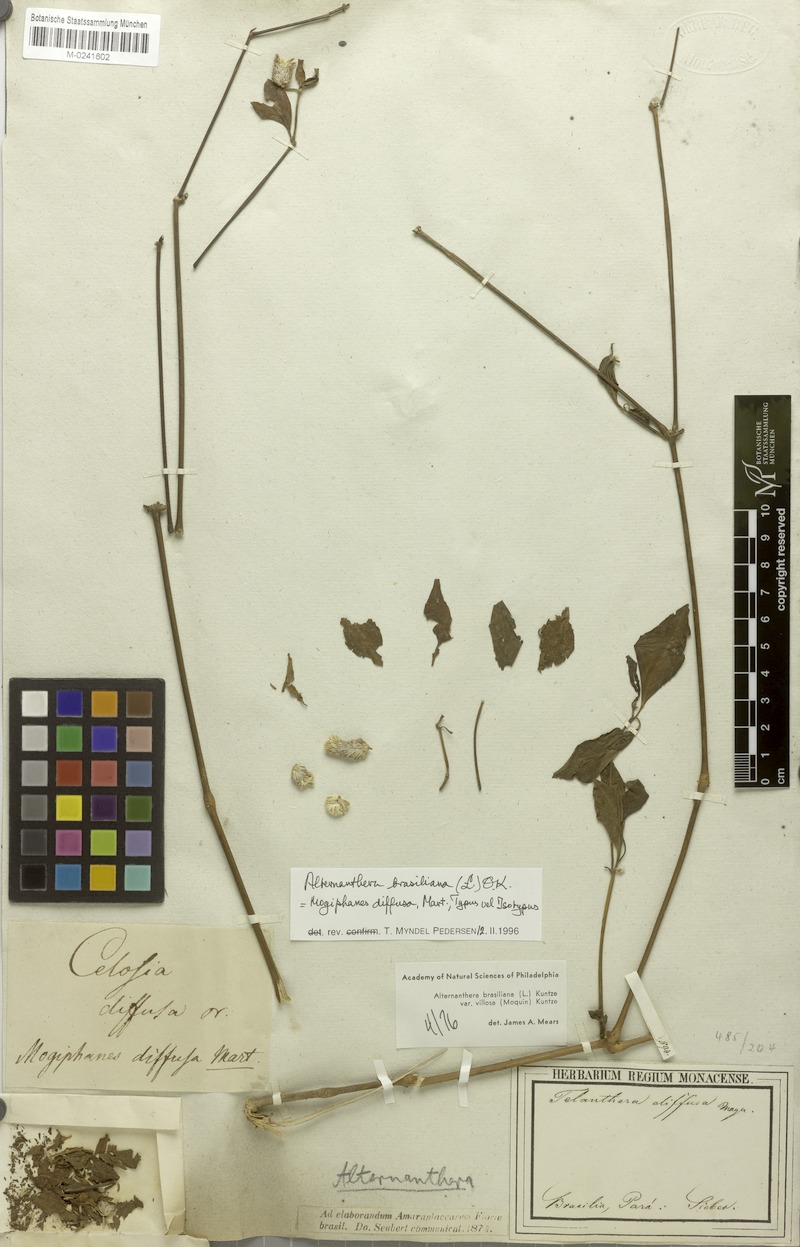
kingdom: Plantae
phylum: Tracheophyta
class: Magnoliopsida
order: Caryophyllales
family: Amaranthaceae
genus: Alternanthera
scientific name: Alternanthera brasiliana
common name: Brazilian joyweed
